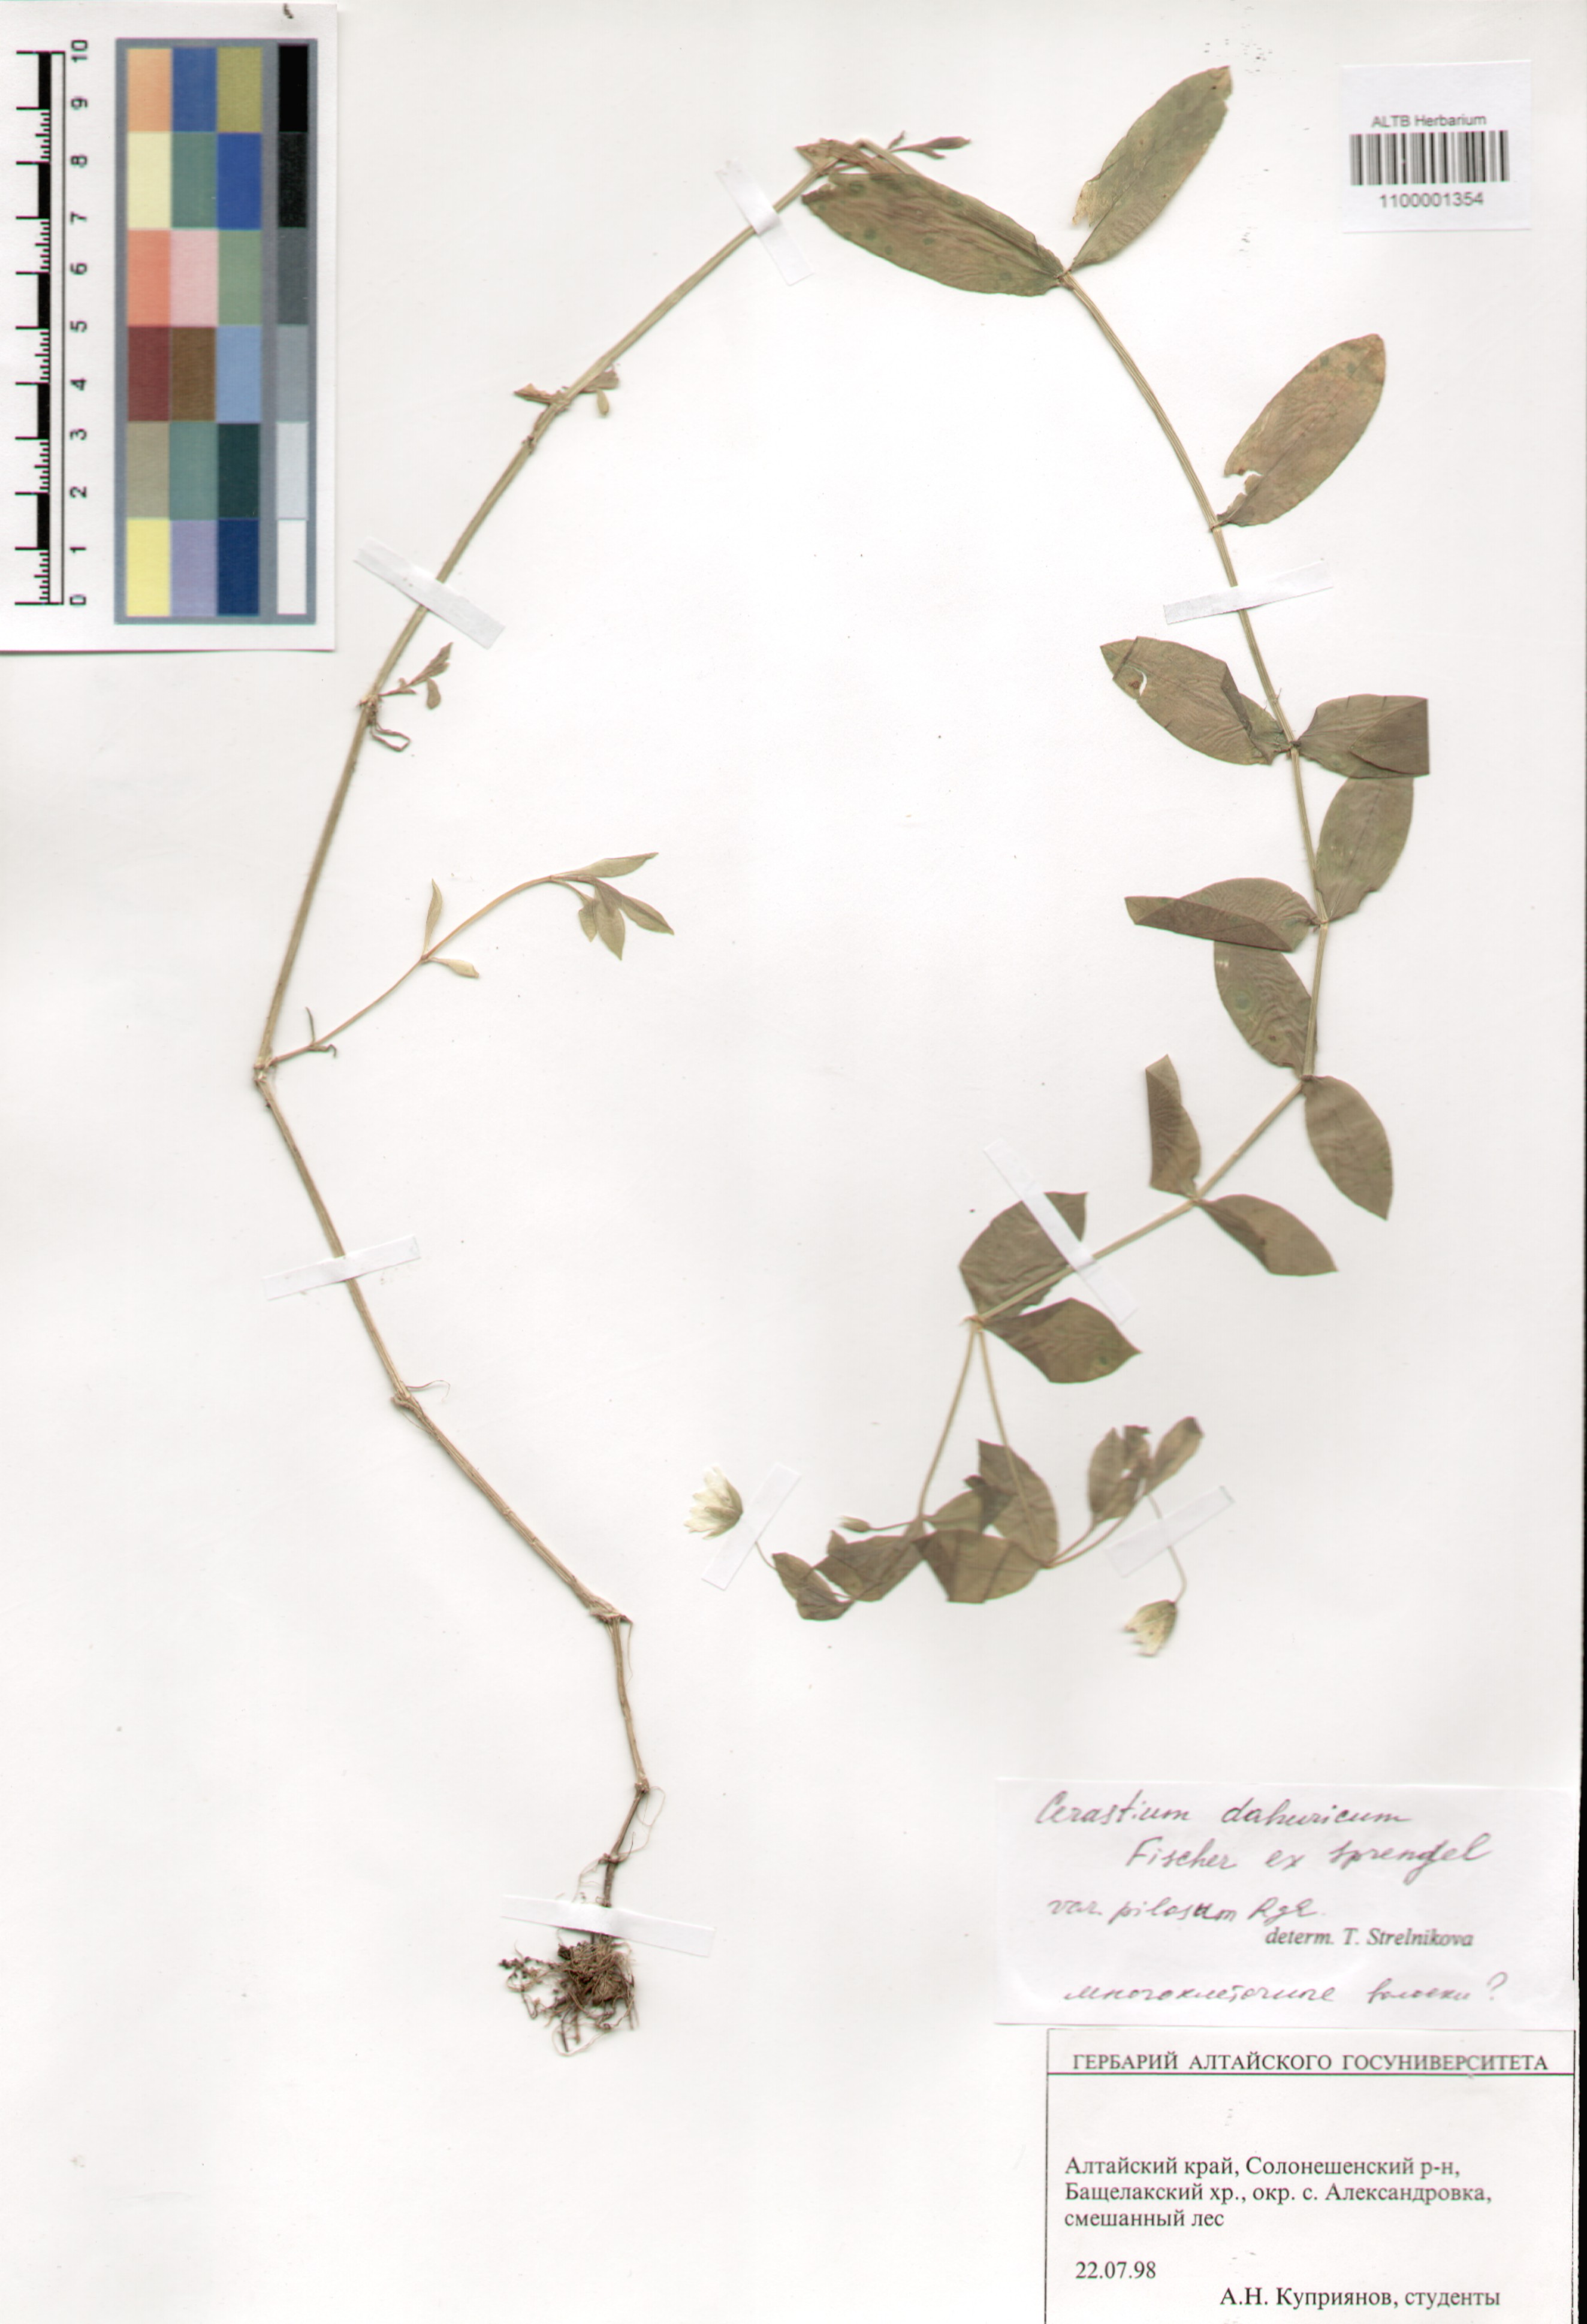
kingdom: Plantae
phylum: Tracheophyta
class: Magnoliopsida
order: Caryophyllales
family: Caryophyllaceae
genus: Dichodon
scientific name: Dichodon davuricum
